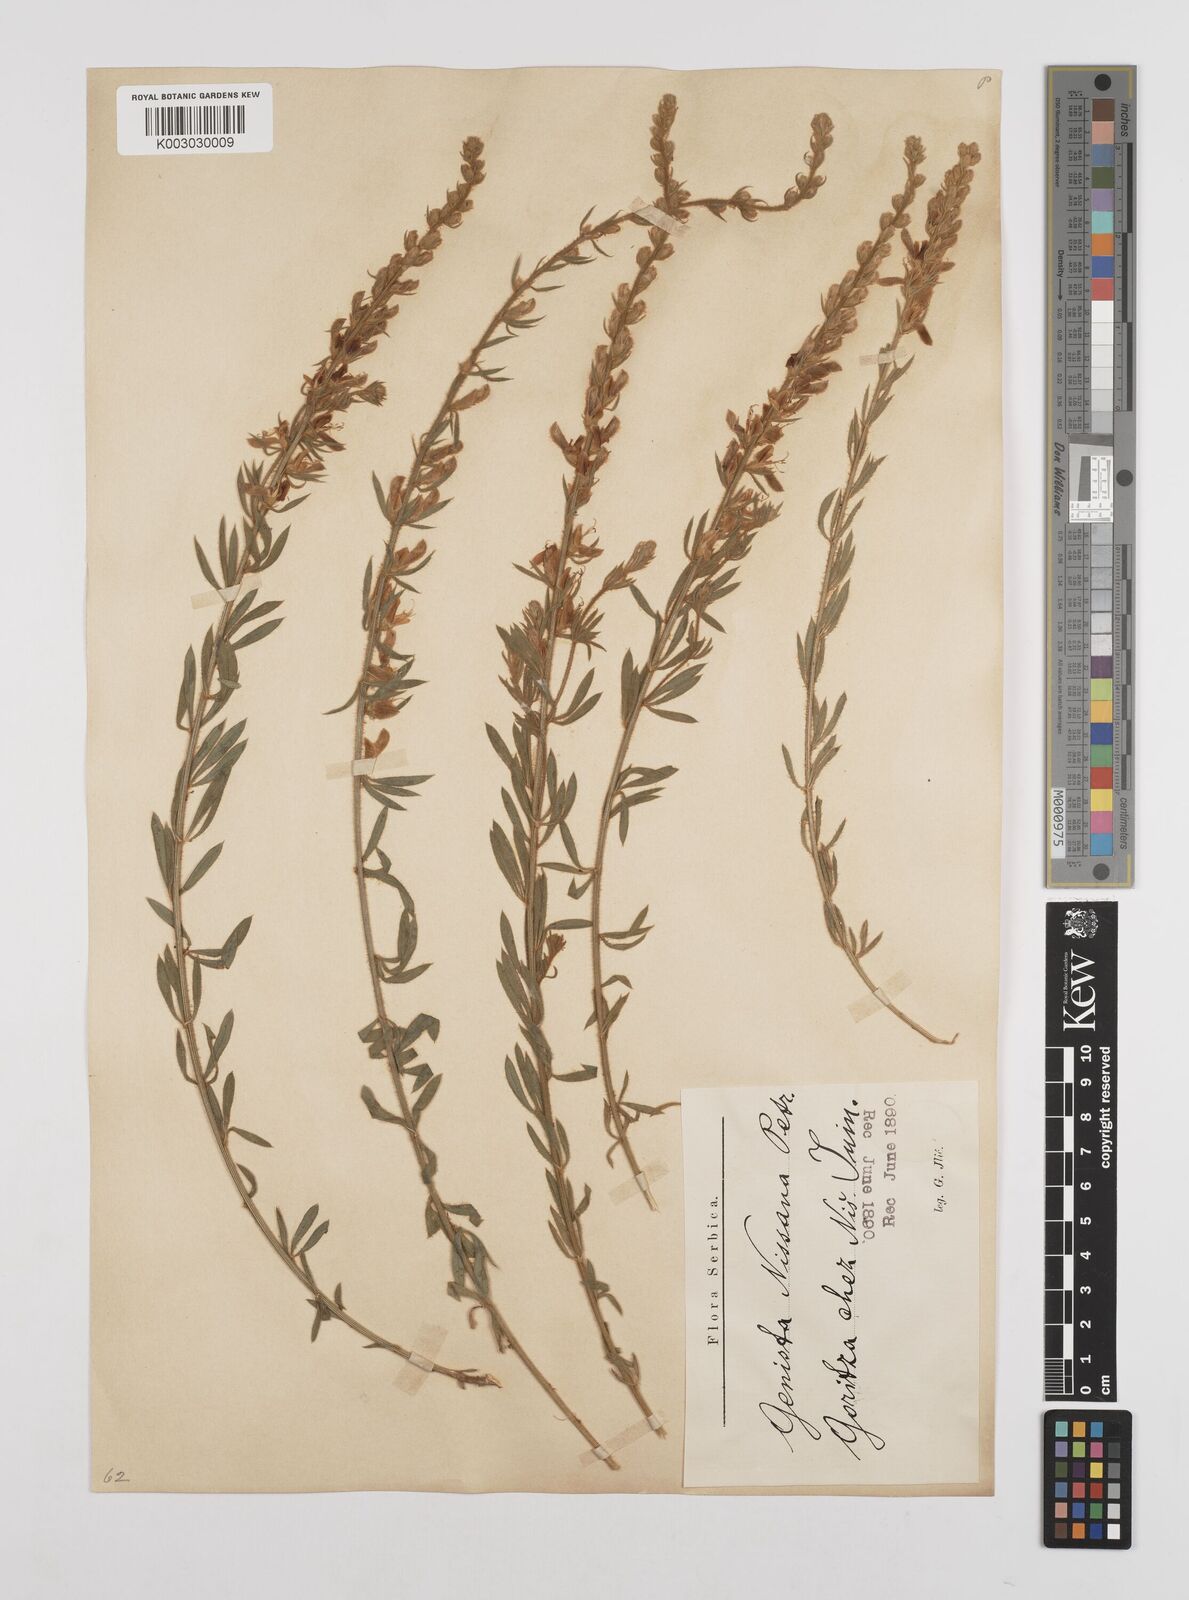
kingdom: Plantae
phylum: Tracheophyta
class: Magnoliopsida
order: Fabales
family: Fabaceae
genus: Genista
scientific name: Genista nissana
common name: Macedonian broom
